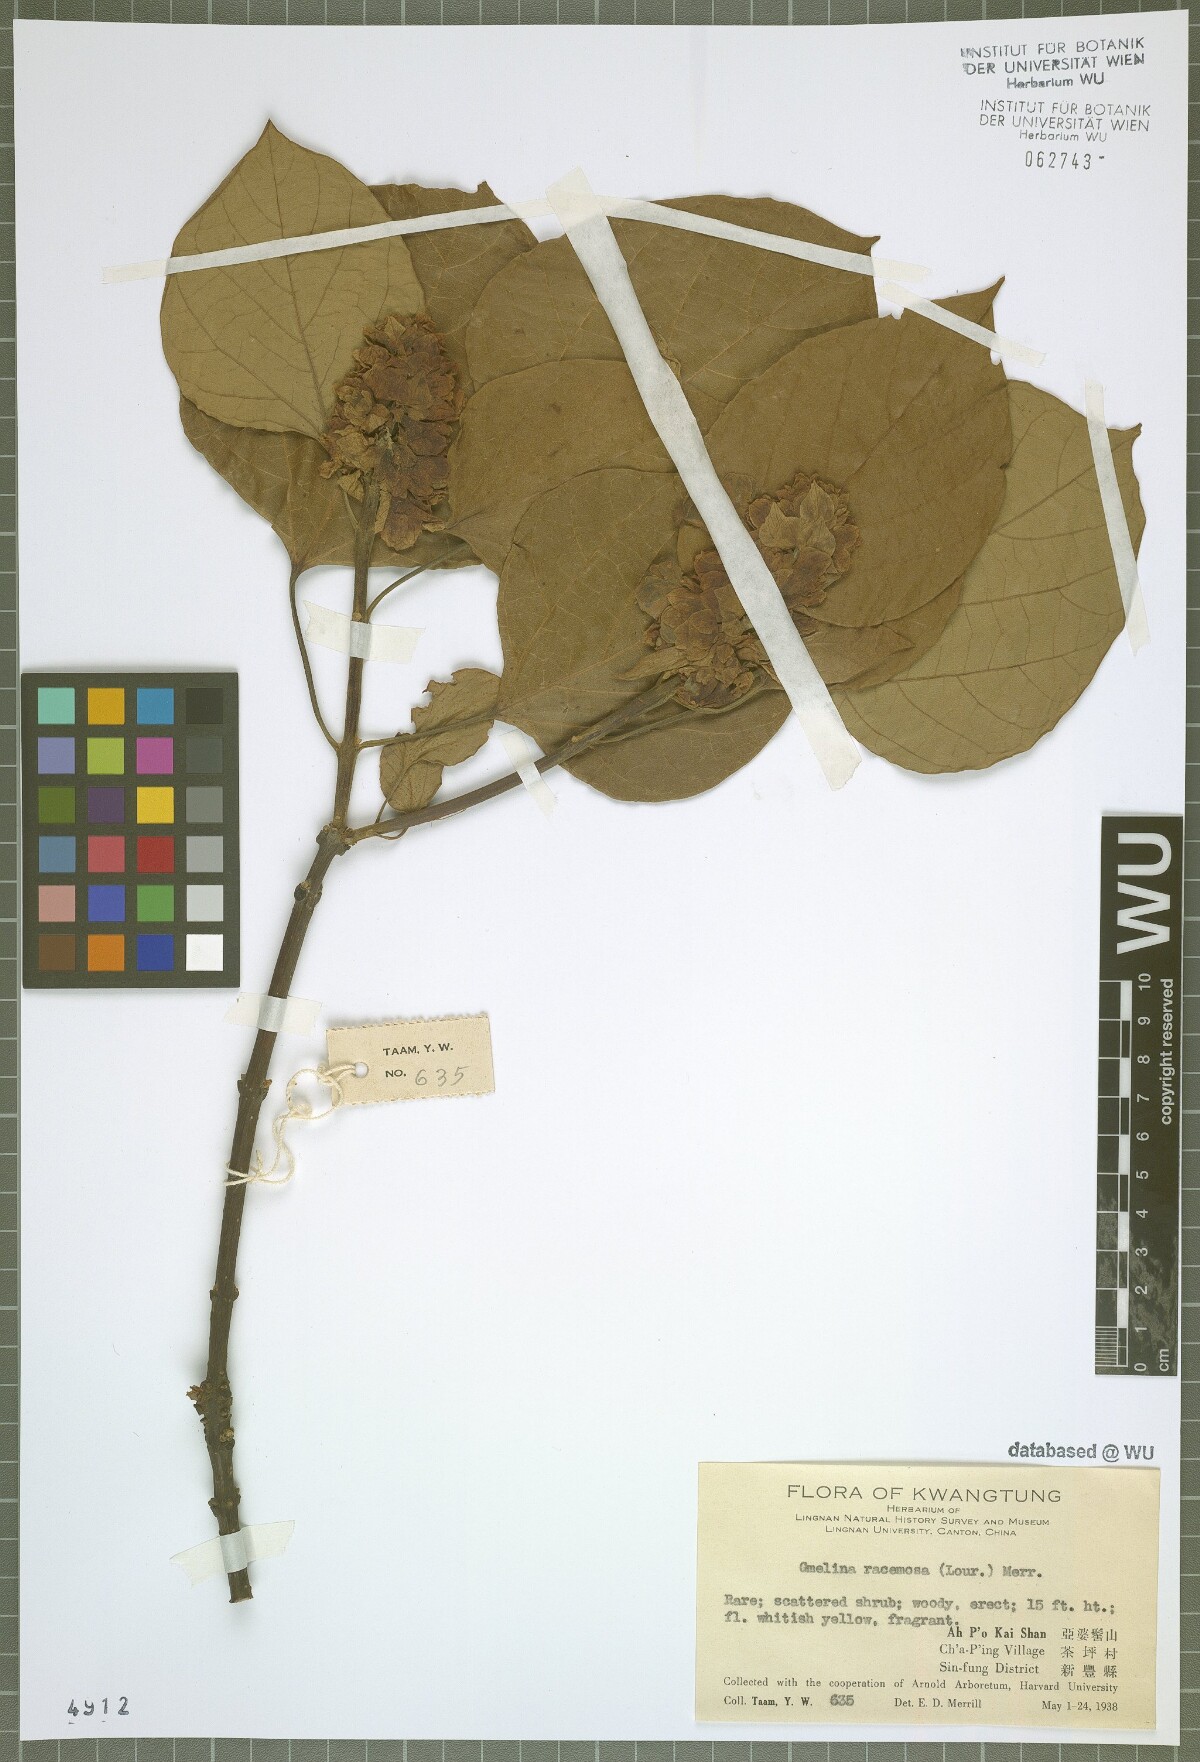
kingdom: Plantae
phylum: Tracheophyta
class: Magnoliopsida
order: Lamiales
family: Lamiaceae
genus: Gmelina
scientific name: Gmelina racemosa
